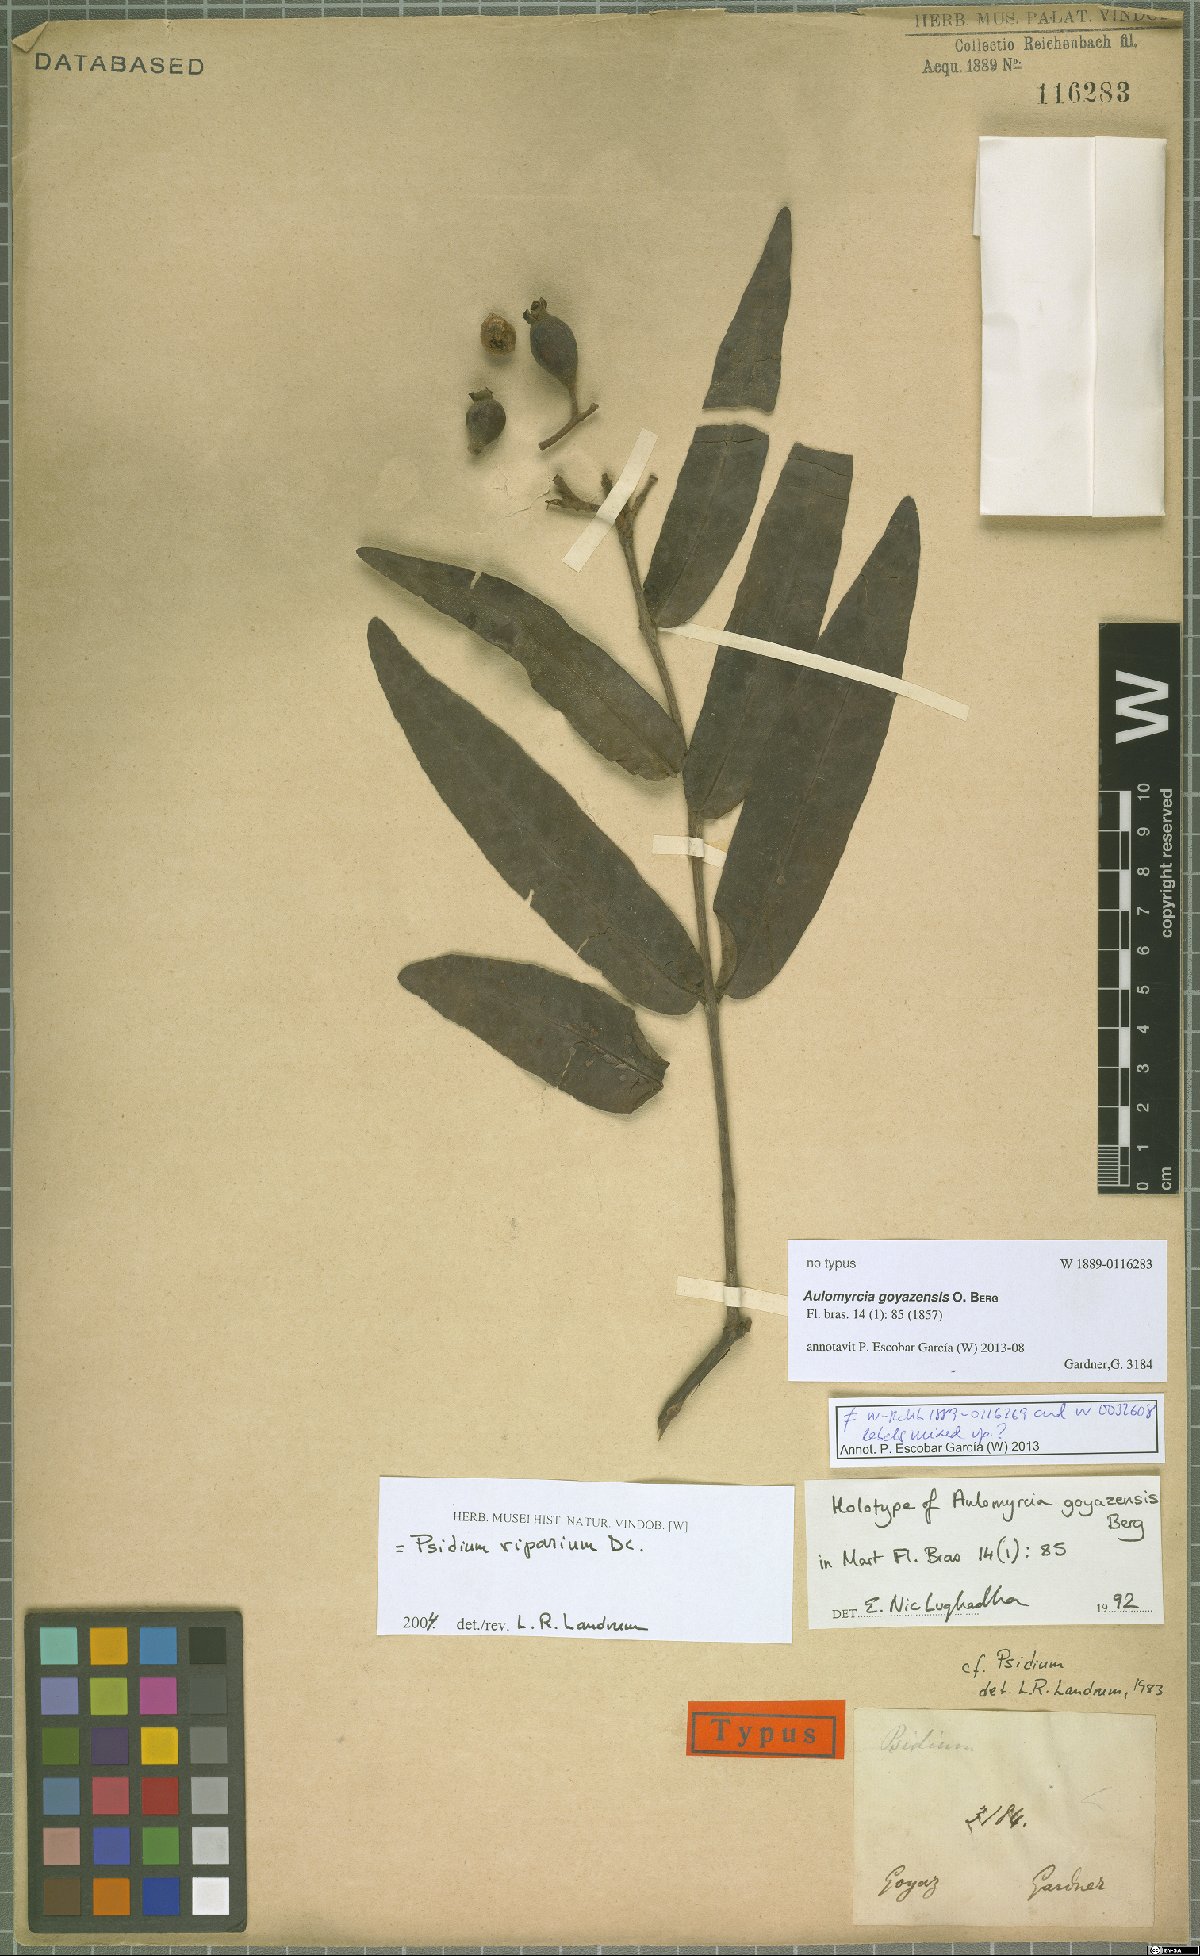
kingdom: Plantae
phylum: Tracheophyta
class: Magnoliopsida
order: Myrtales
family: Myrtaceae
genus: Psidium
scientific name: Psidium riparium
